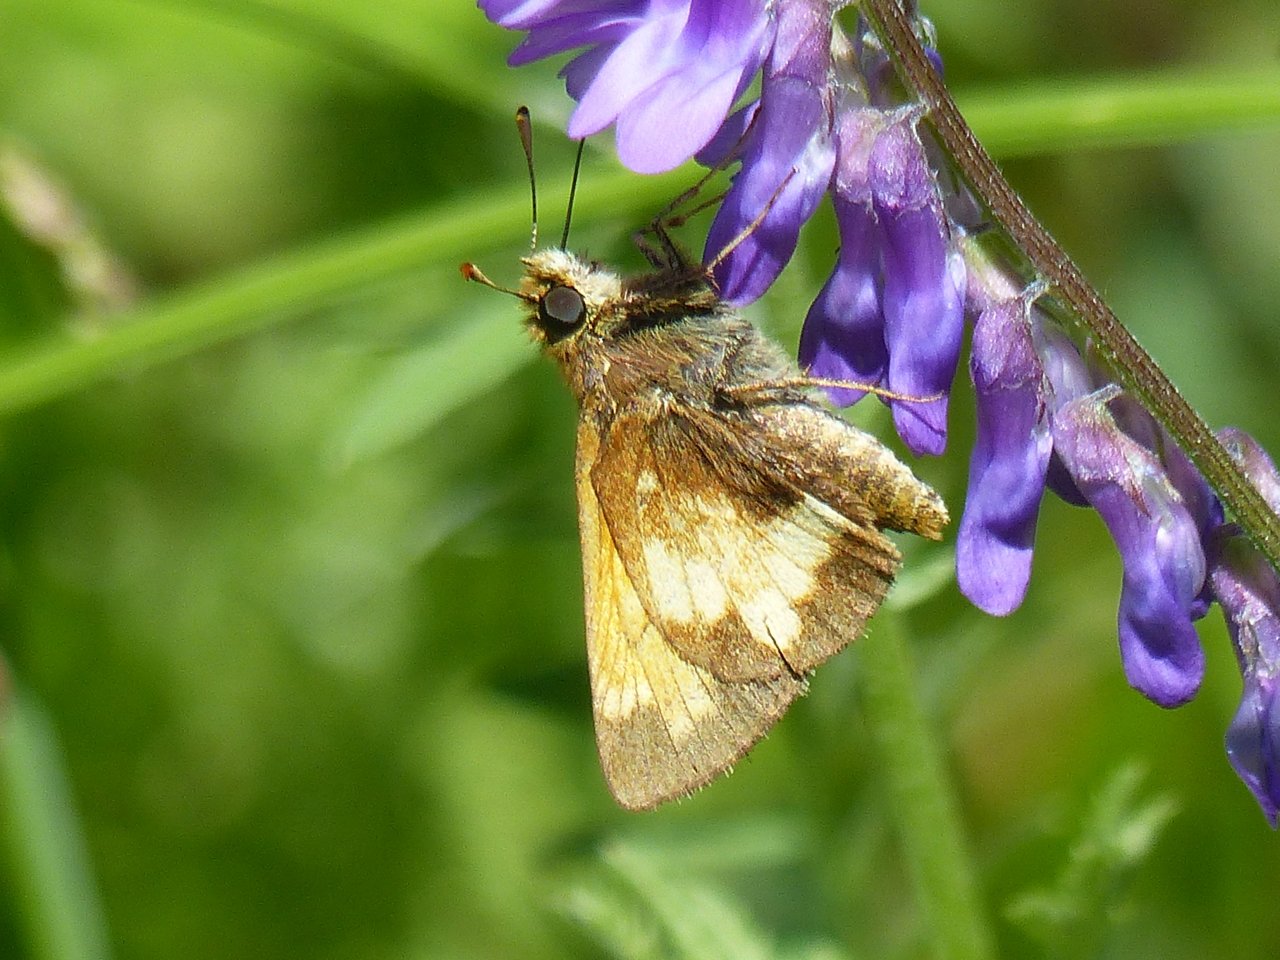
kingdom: Animalia
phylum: Arthropoda
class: Insecta
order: Lepidoptera
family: Hesperiidae
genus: Lon
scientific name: Lon hobomok
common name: Hobomok Skipper
